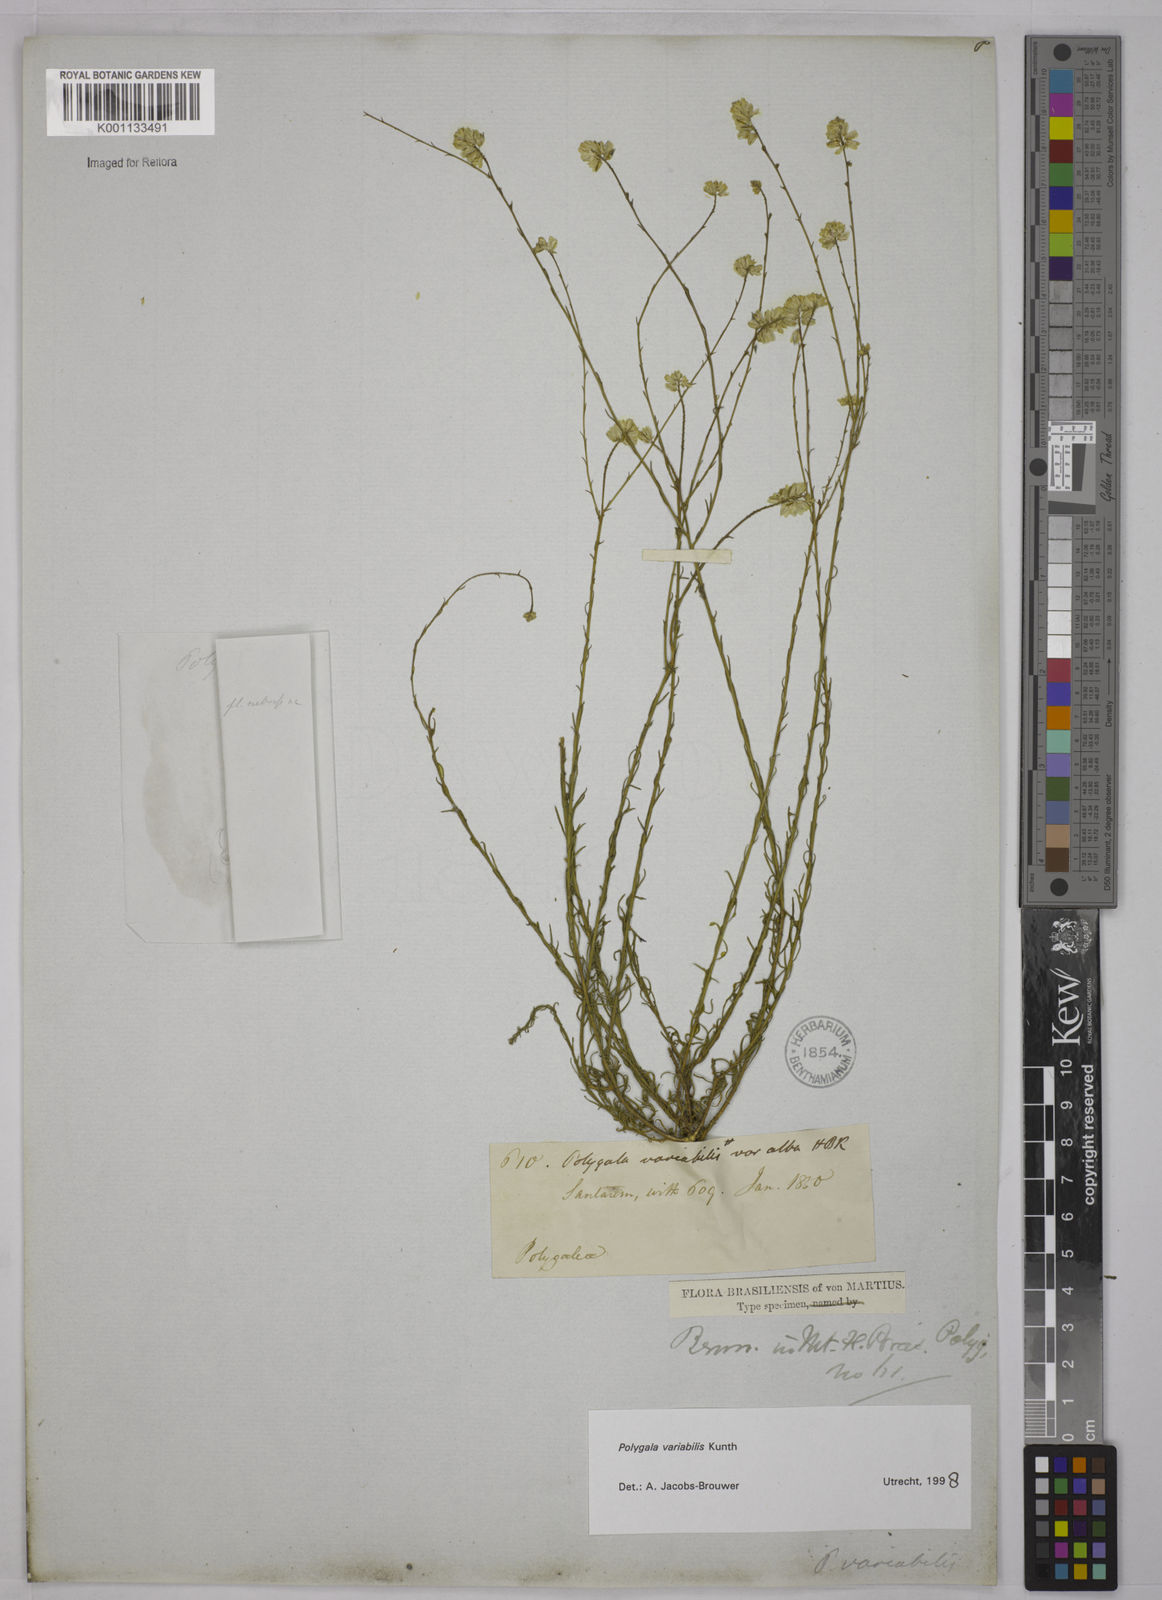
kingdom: Plantae
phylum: Tracheophyta
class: Magnoliopsida
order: Fabales
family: Polygalaceae
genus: Polygala
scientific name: Polygala trichosperma
